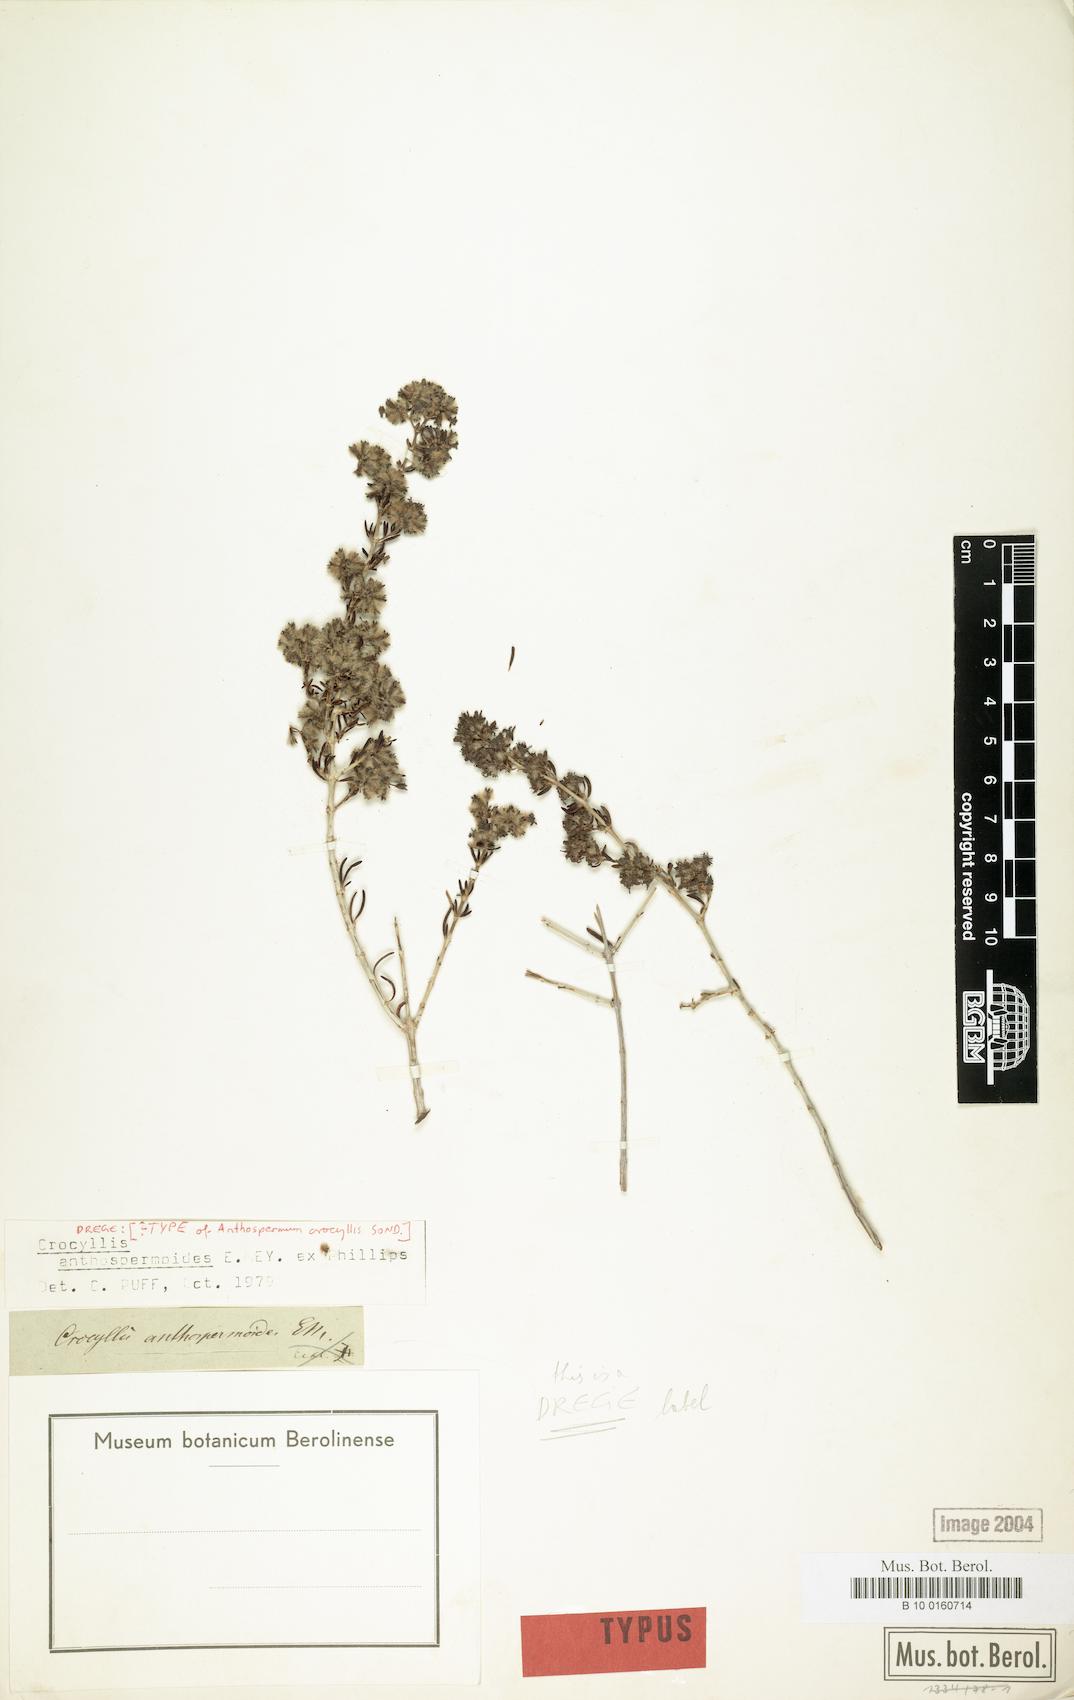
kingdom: Plantae
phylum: Tracheophyta
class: Magnoliopsida
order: Gentianales
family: Rubiaceae
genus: Plocama
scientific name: Plocama Crocyllis anthospermoides
